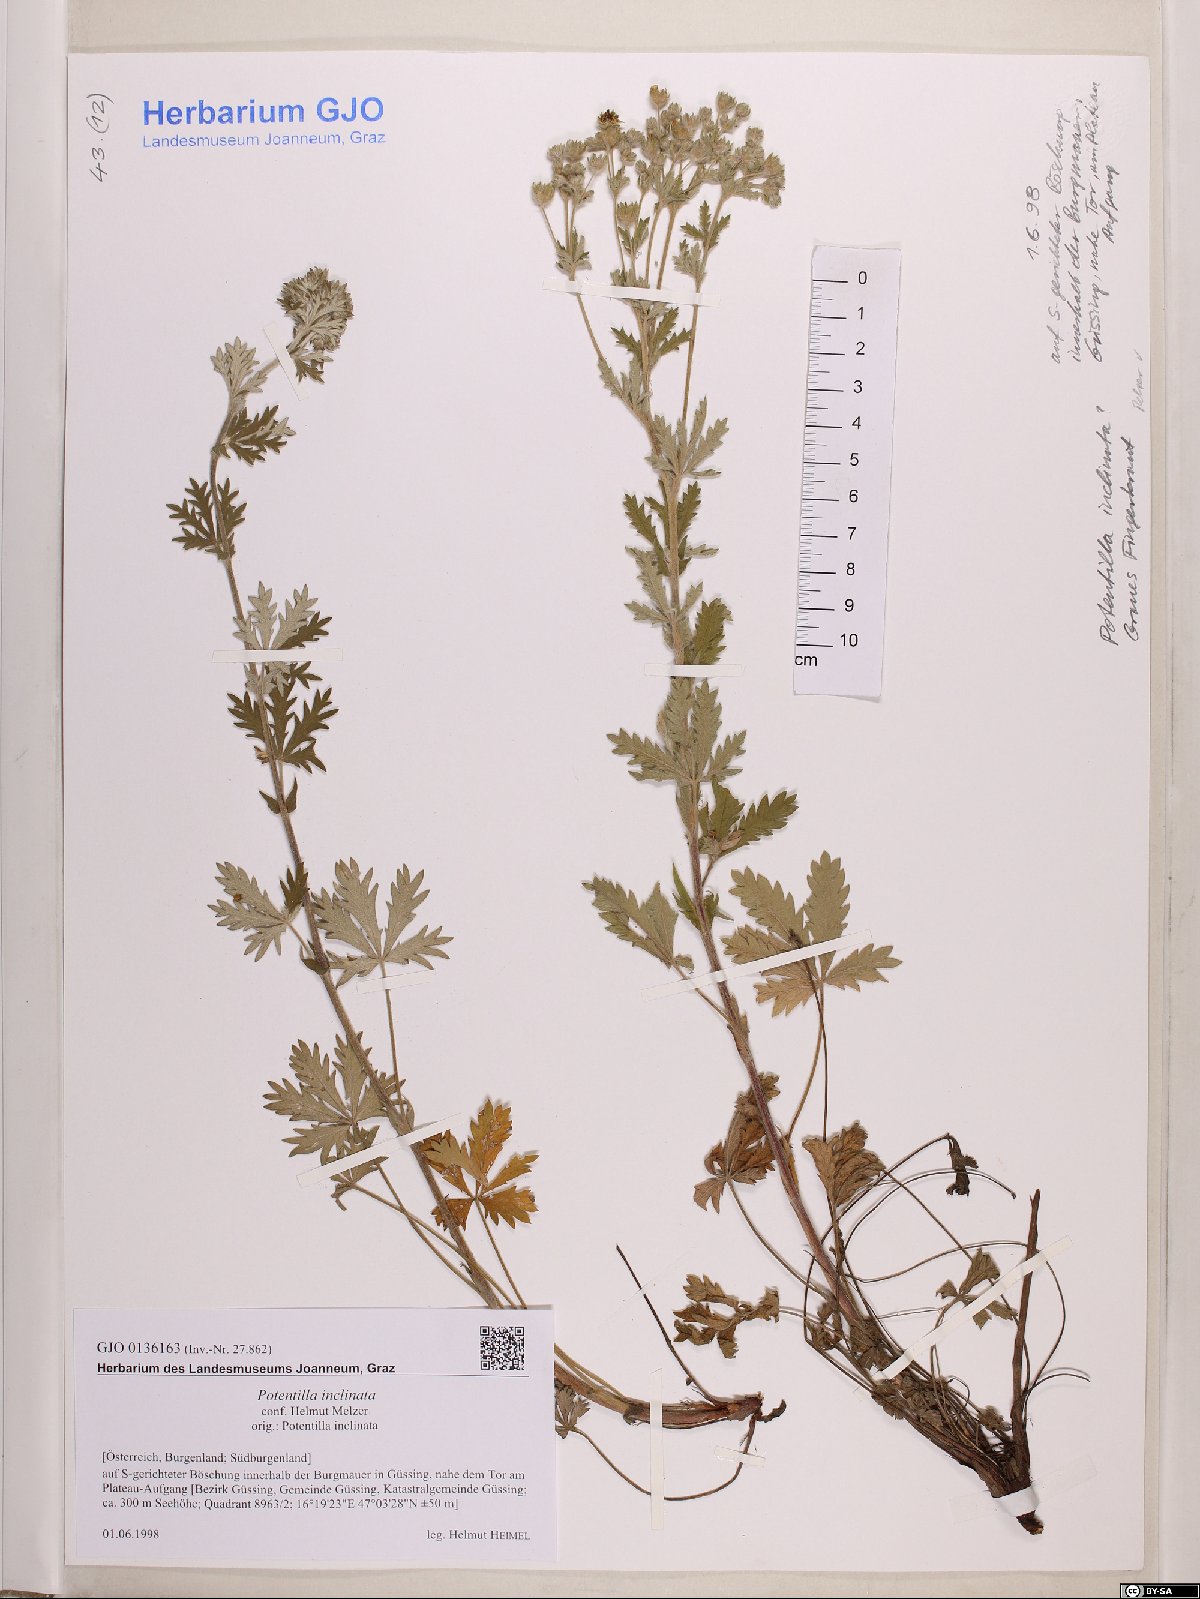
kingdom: Plantae
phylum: Tracheophyta
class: Magnoliopsida
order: Rosales
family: Rosaceae
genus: Potentilla
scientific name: Potentilla inclinata
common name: Grey cinquefoil
